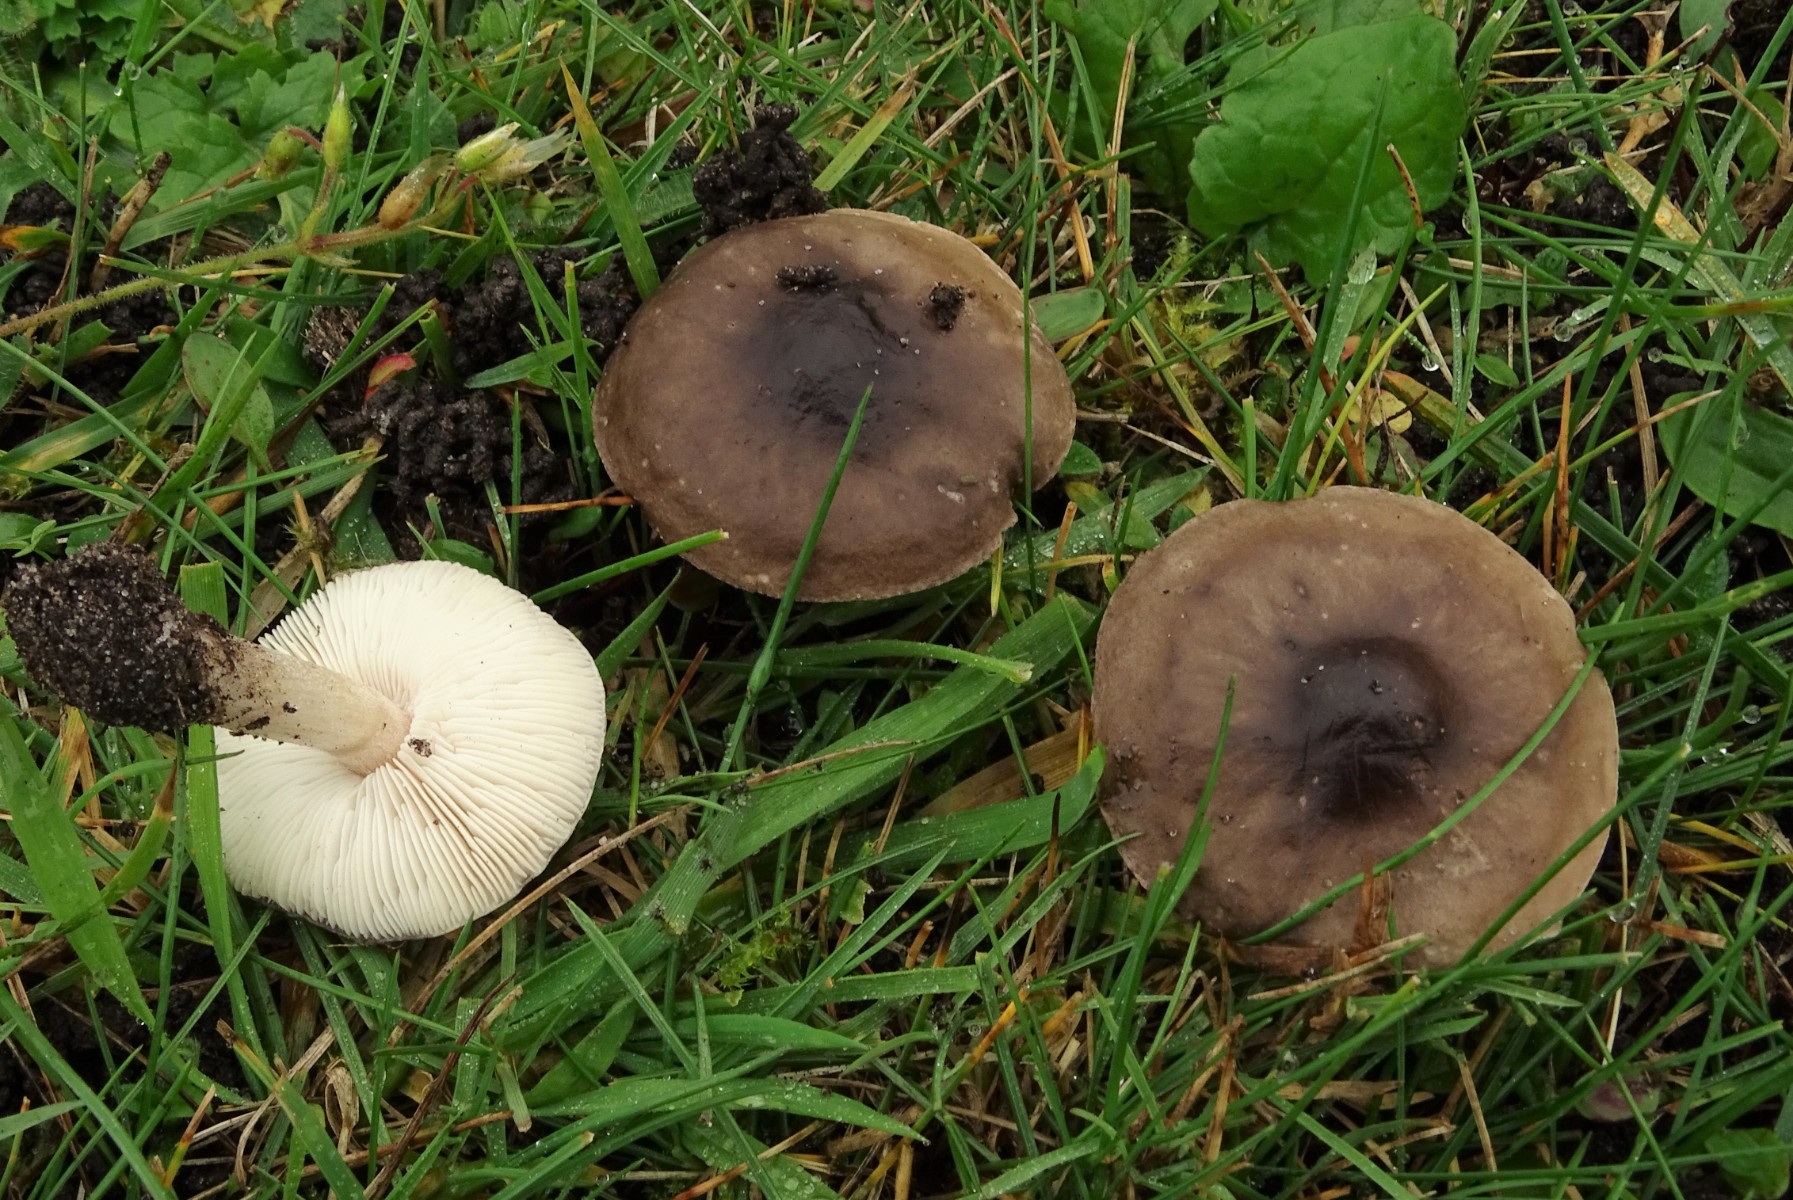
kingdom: Fungi
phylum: Basidiomycota
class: Agaricomycetes
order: Agaricales
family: Tricholomataceae
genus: Melanoleuca
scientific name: Melanoleuca polioleuca
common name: almindelig munkehat
